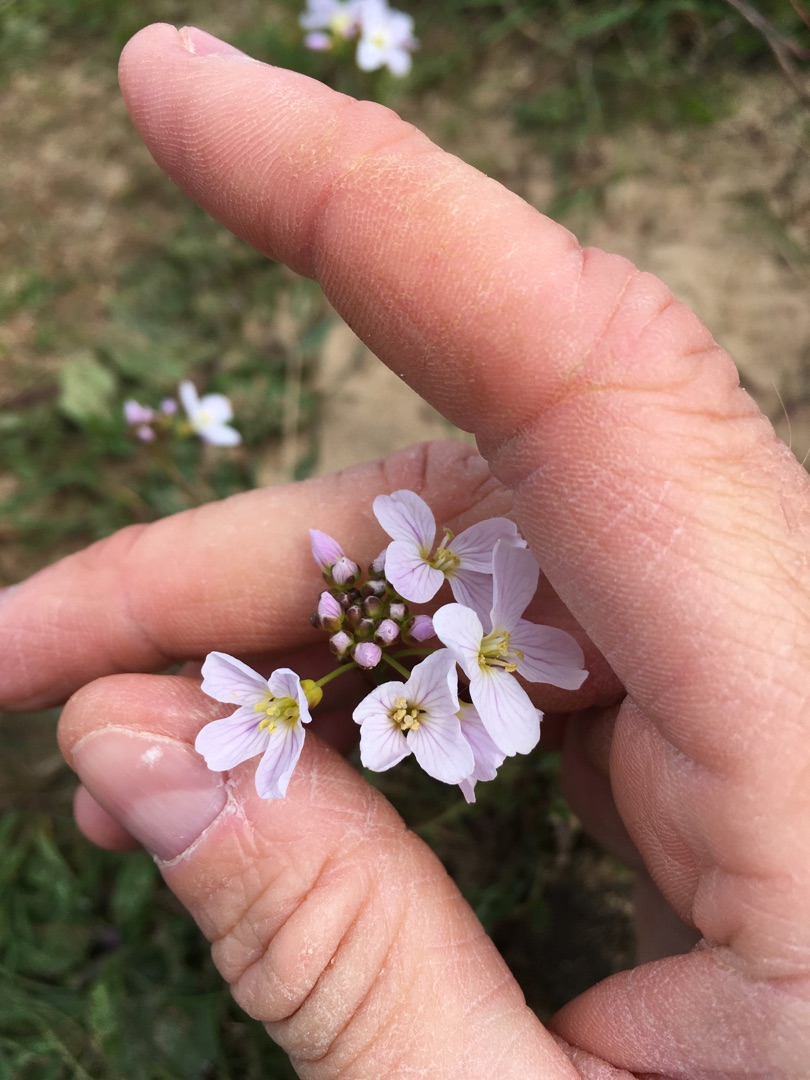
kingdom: Plantae
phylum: Tracheophyta
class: Magnoliopsida
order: Brassicales
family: Brassicaceae
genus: Cardamine
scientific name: Cardamine pratensis
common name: Engkarse
